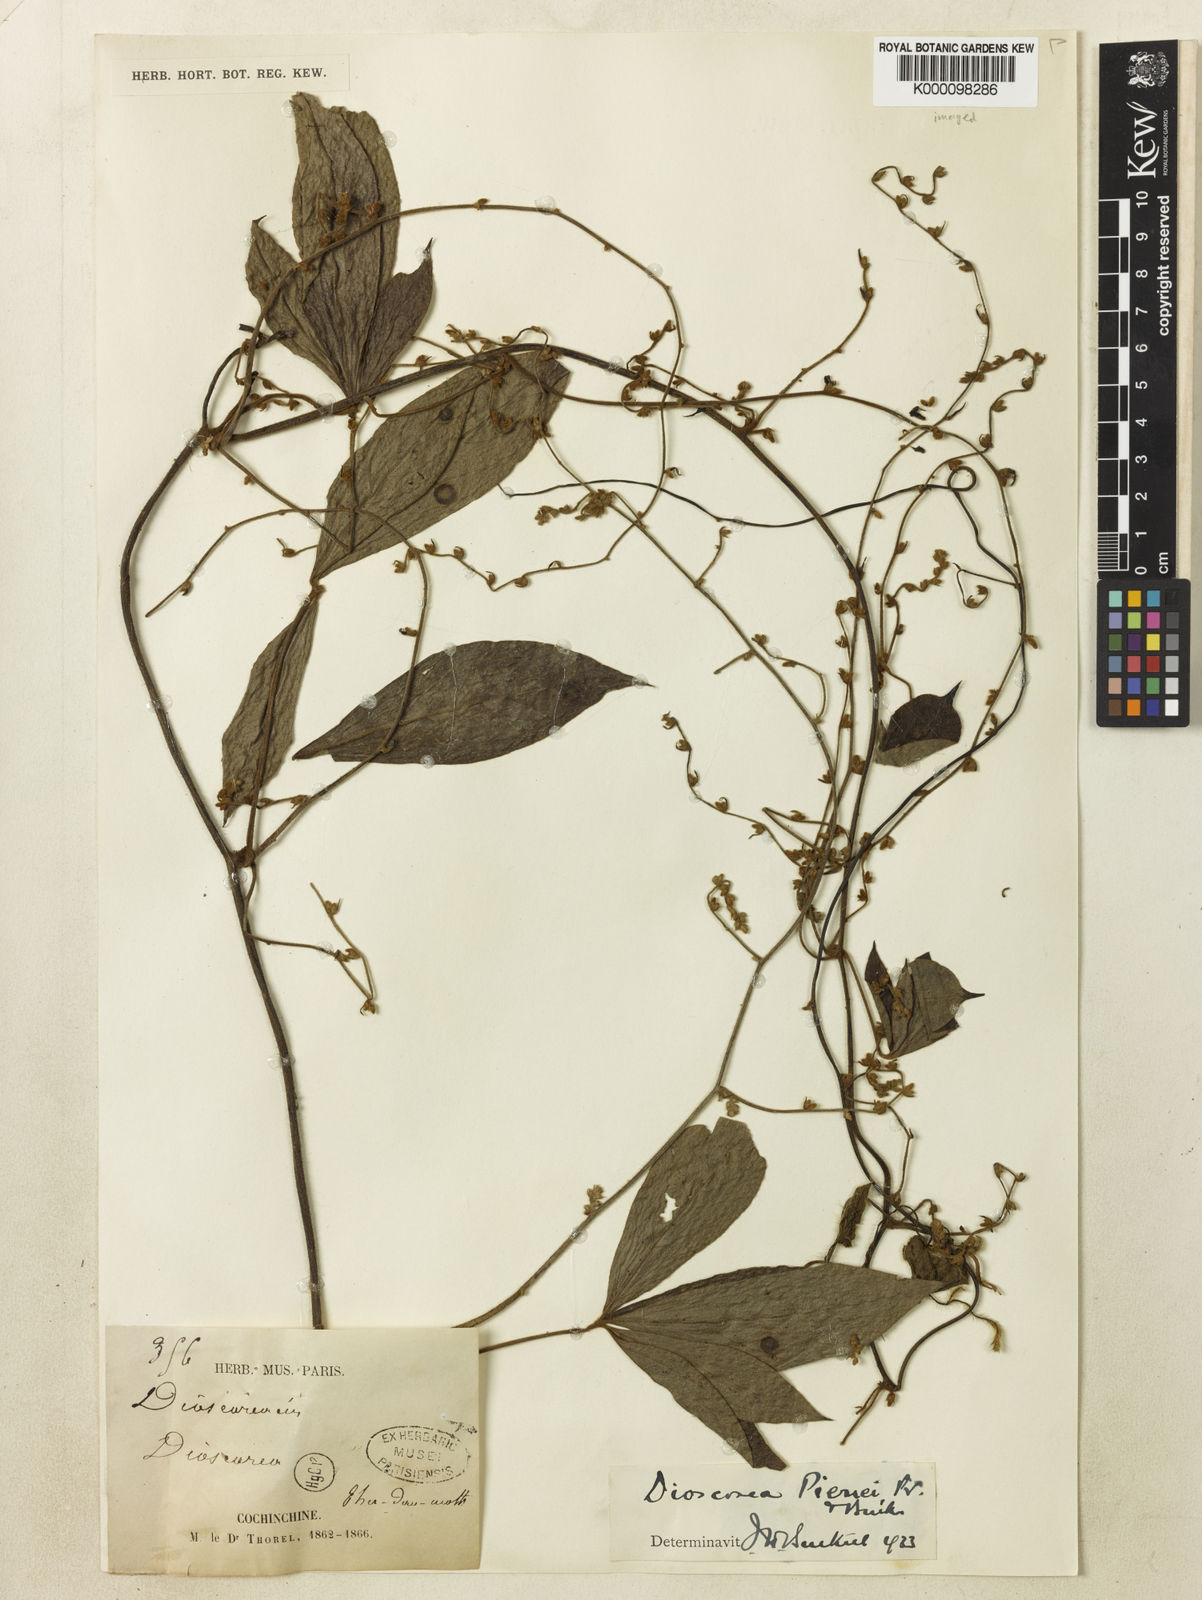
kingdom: Plantae
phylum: Tracheophyta
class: Liliopsida
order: Dioscoreales
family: Dioscoreaceae
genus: Dioscorea
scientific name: Dioscorea pierrei
